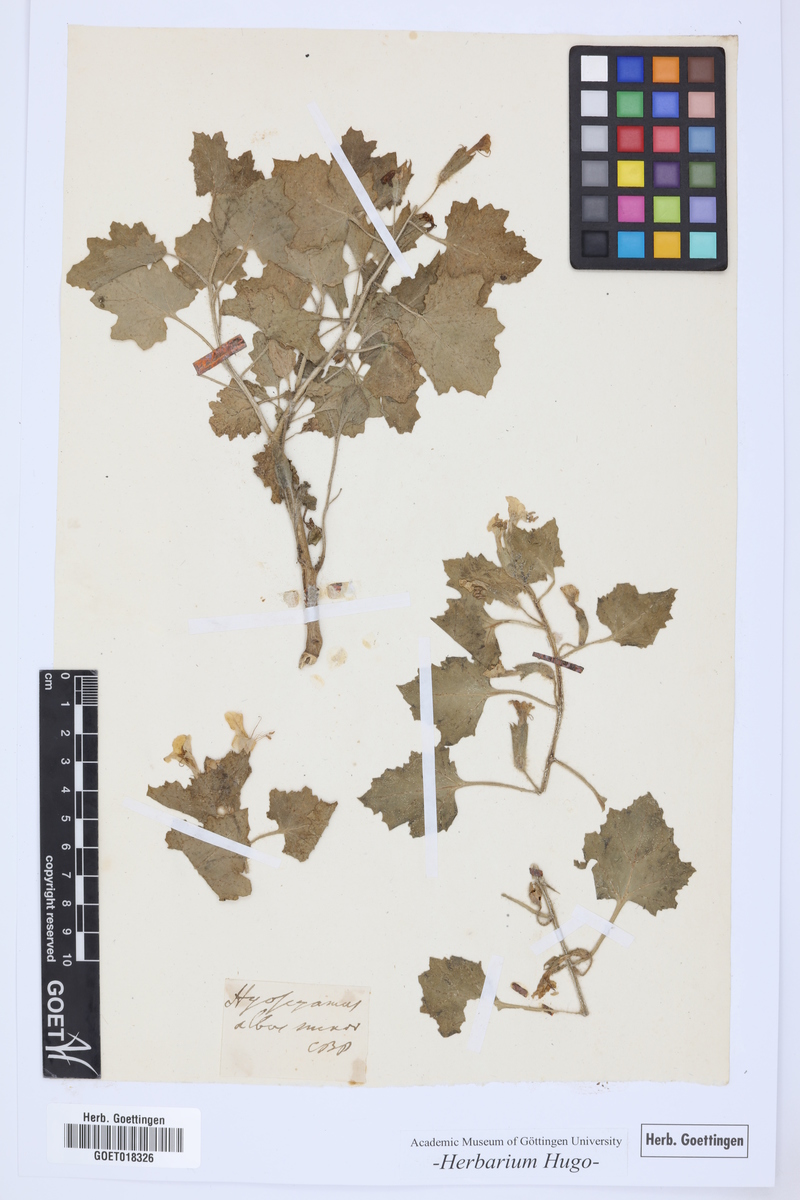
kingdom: Plantae
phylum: Tracheophyta
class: Magnoliopsida
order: Solanales
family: Solanaceae
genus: Hyoscyamus
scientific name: Hyoscyamus albus
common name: White henbane
